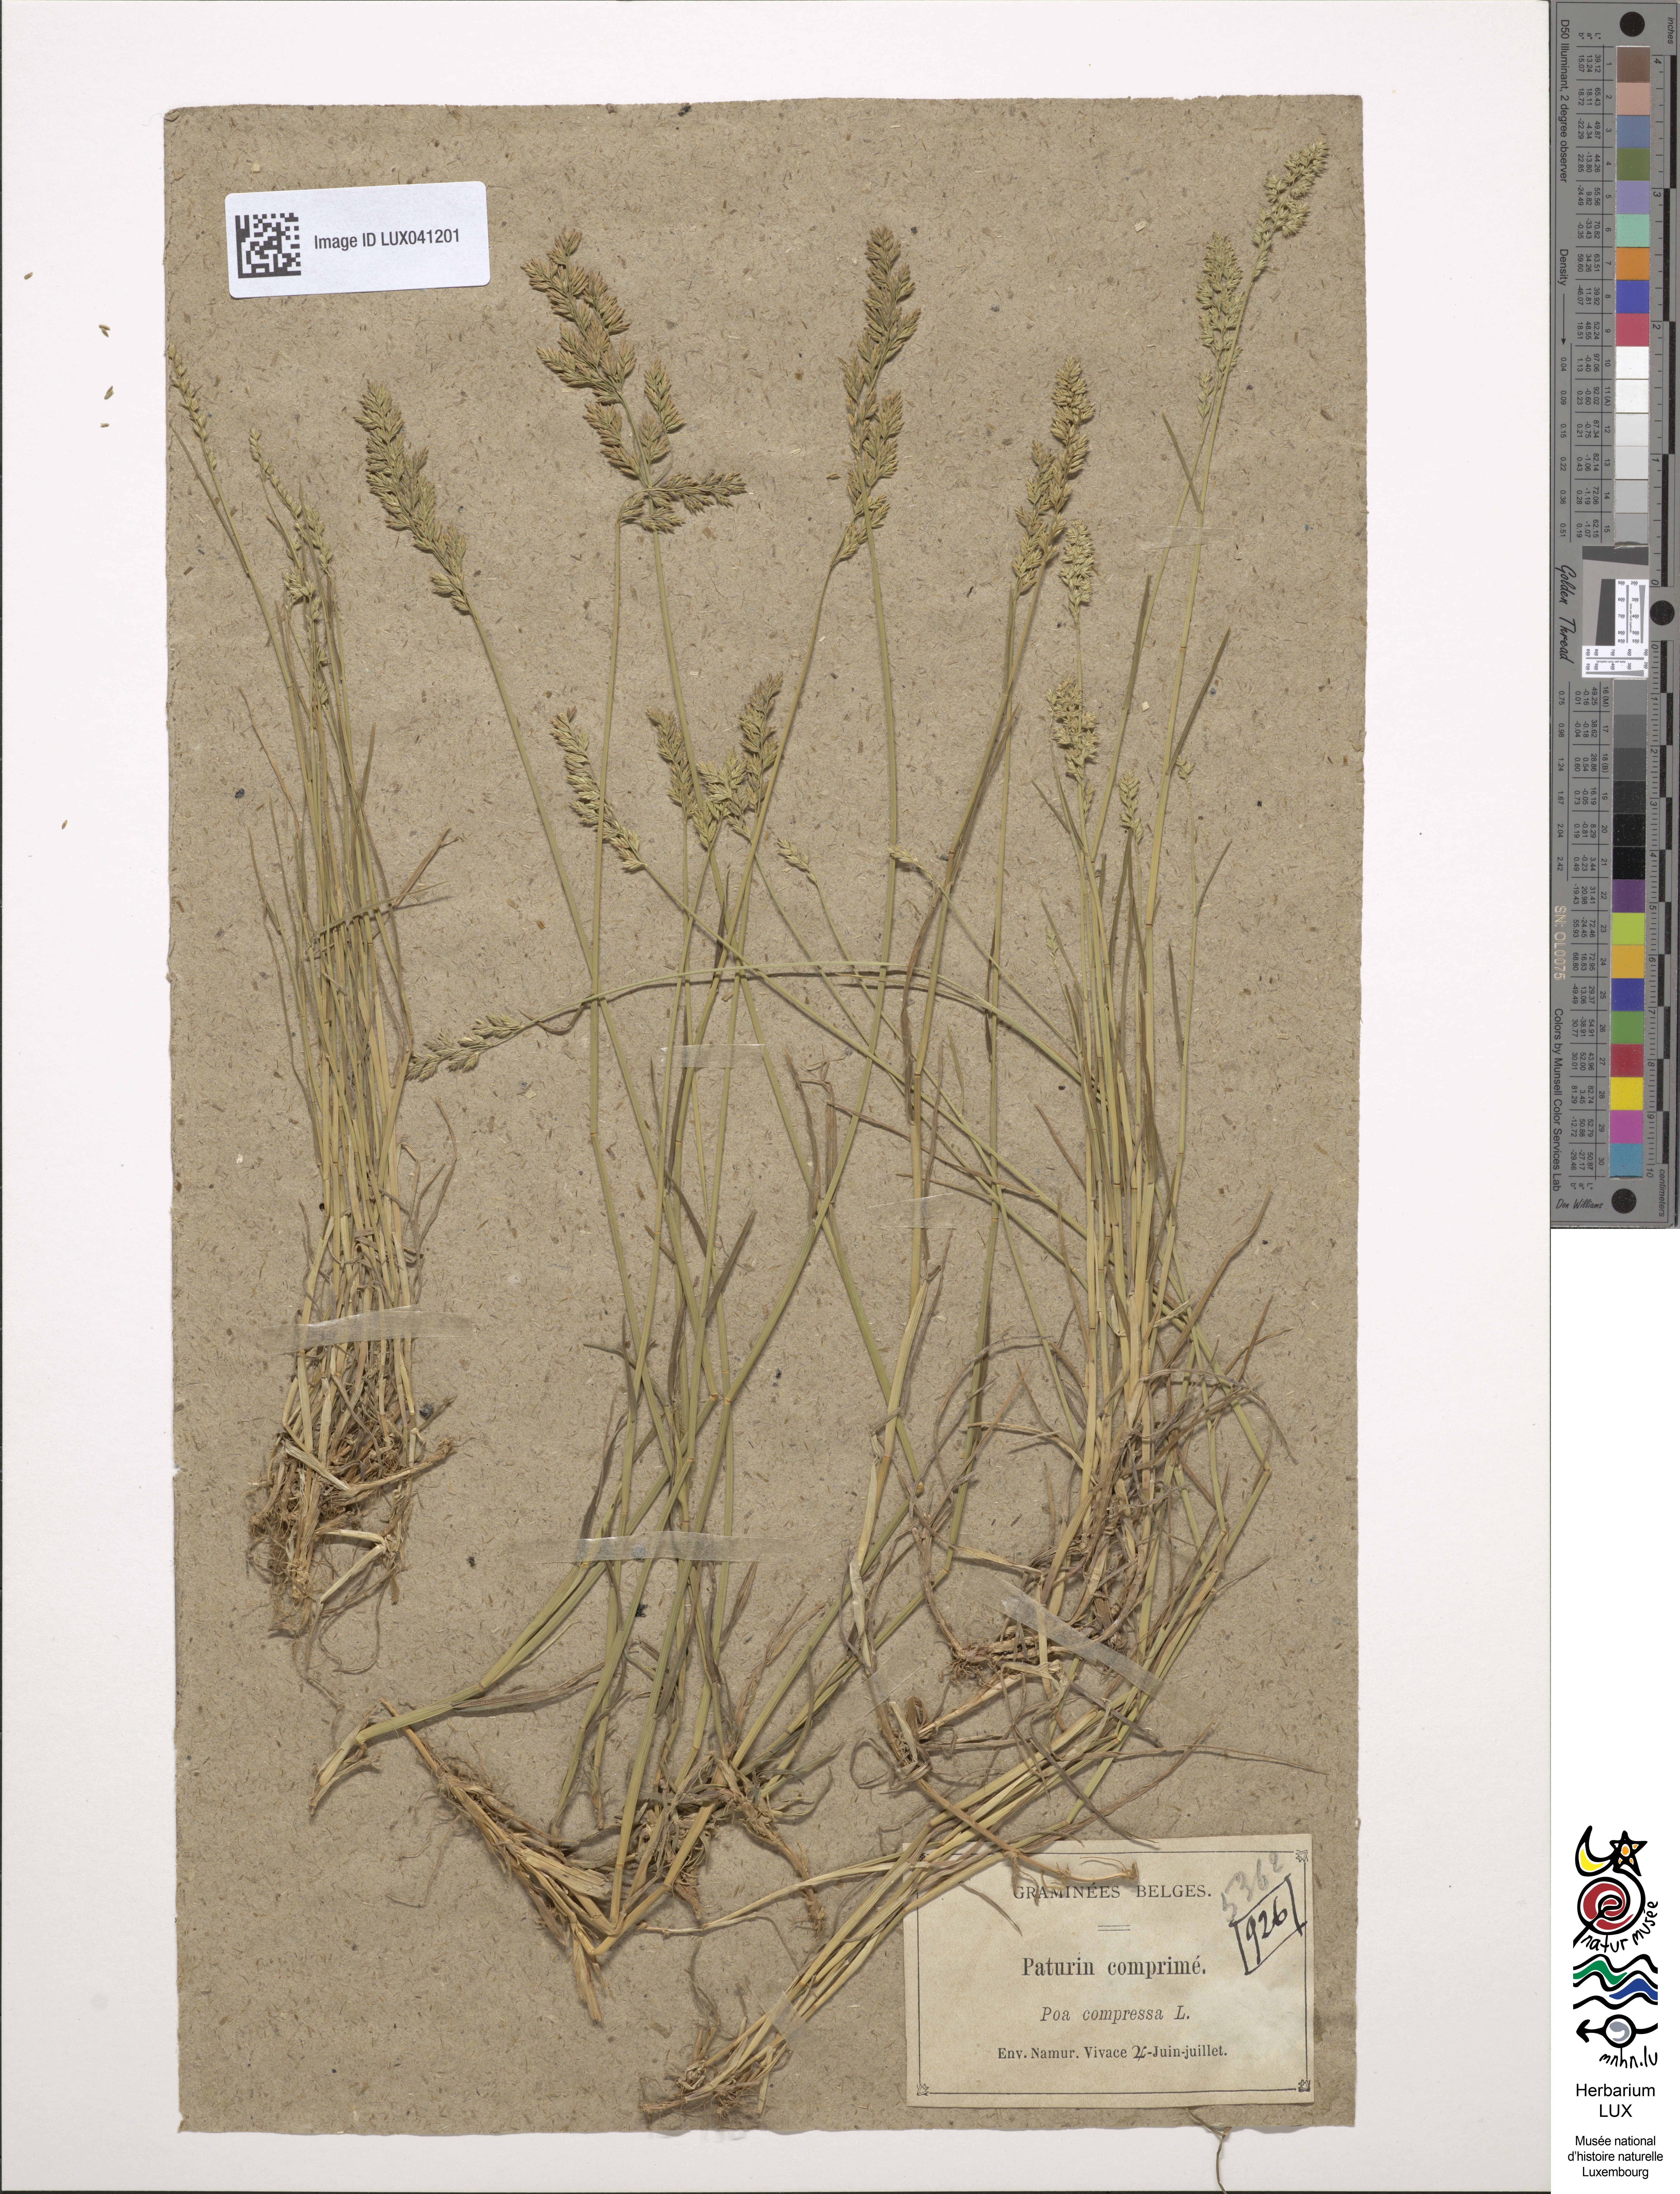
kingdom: Plantae
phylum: Tracheophyta
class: Liliopsida
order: Poales
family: Poaceae
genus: Poa
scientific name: Poa compressa
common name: Canada bluegrass
